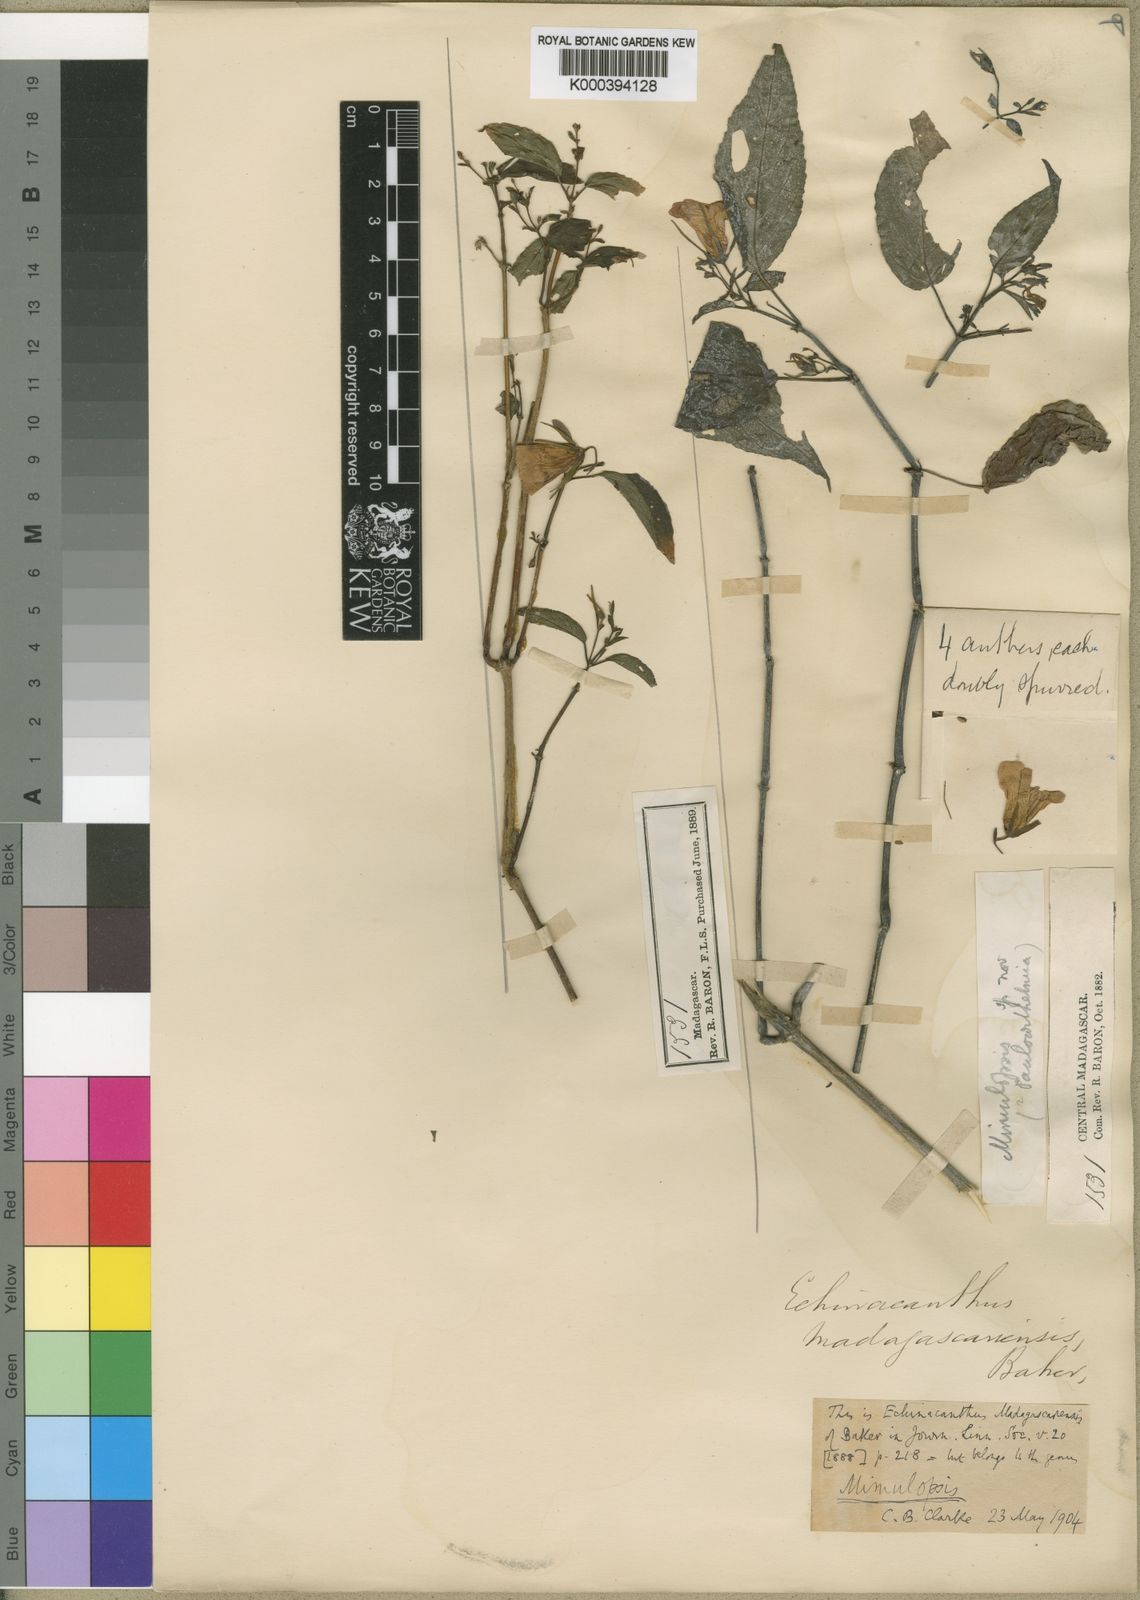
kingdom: Plantae
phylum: Tracheophyta
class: Magnoliopsida
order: Lamiales
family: Acanthaceae
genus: Mimulopsis
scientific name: Mimulopsis madagascariensis
